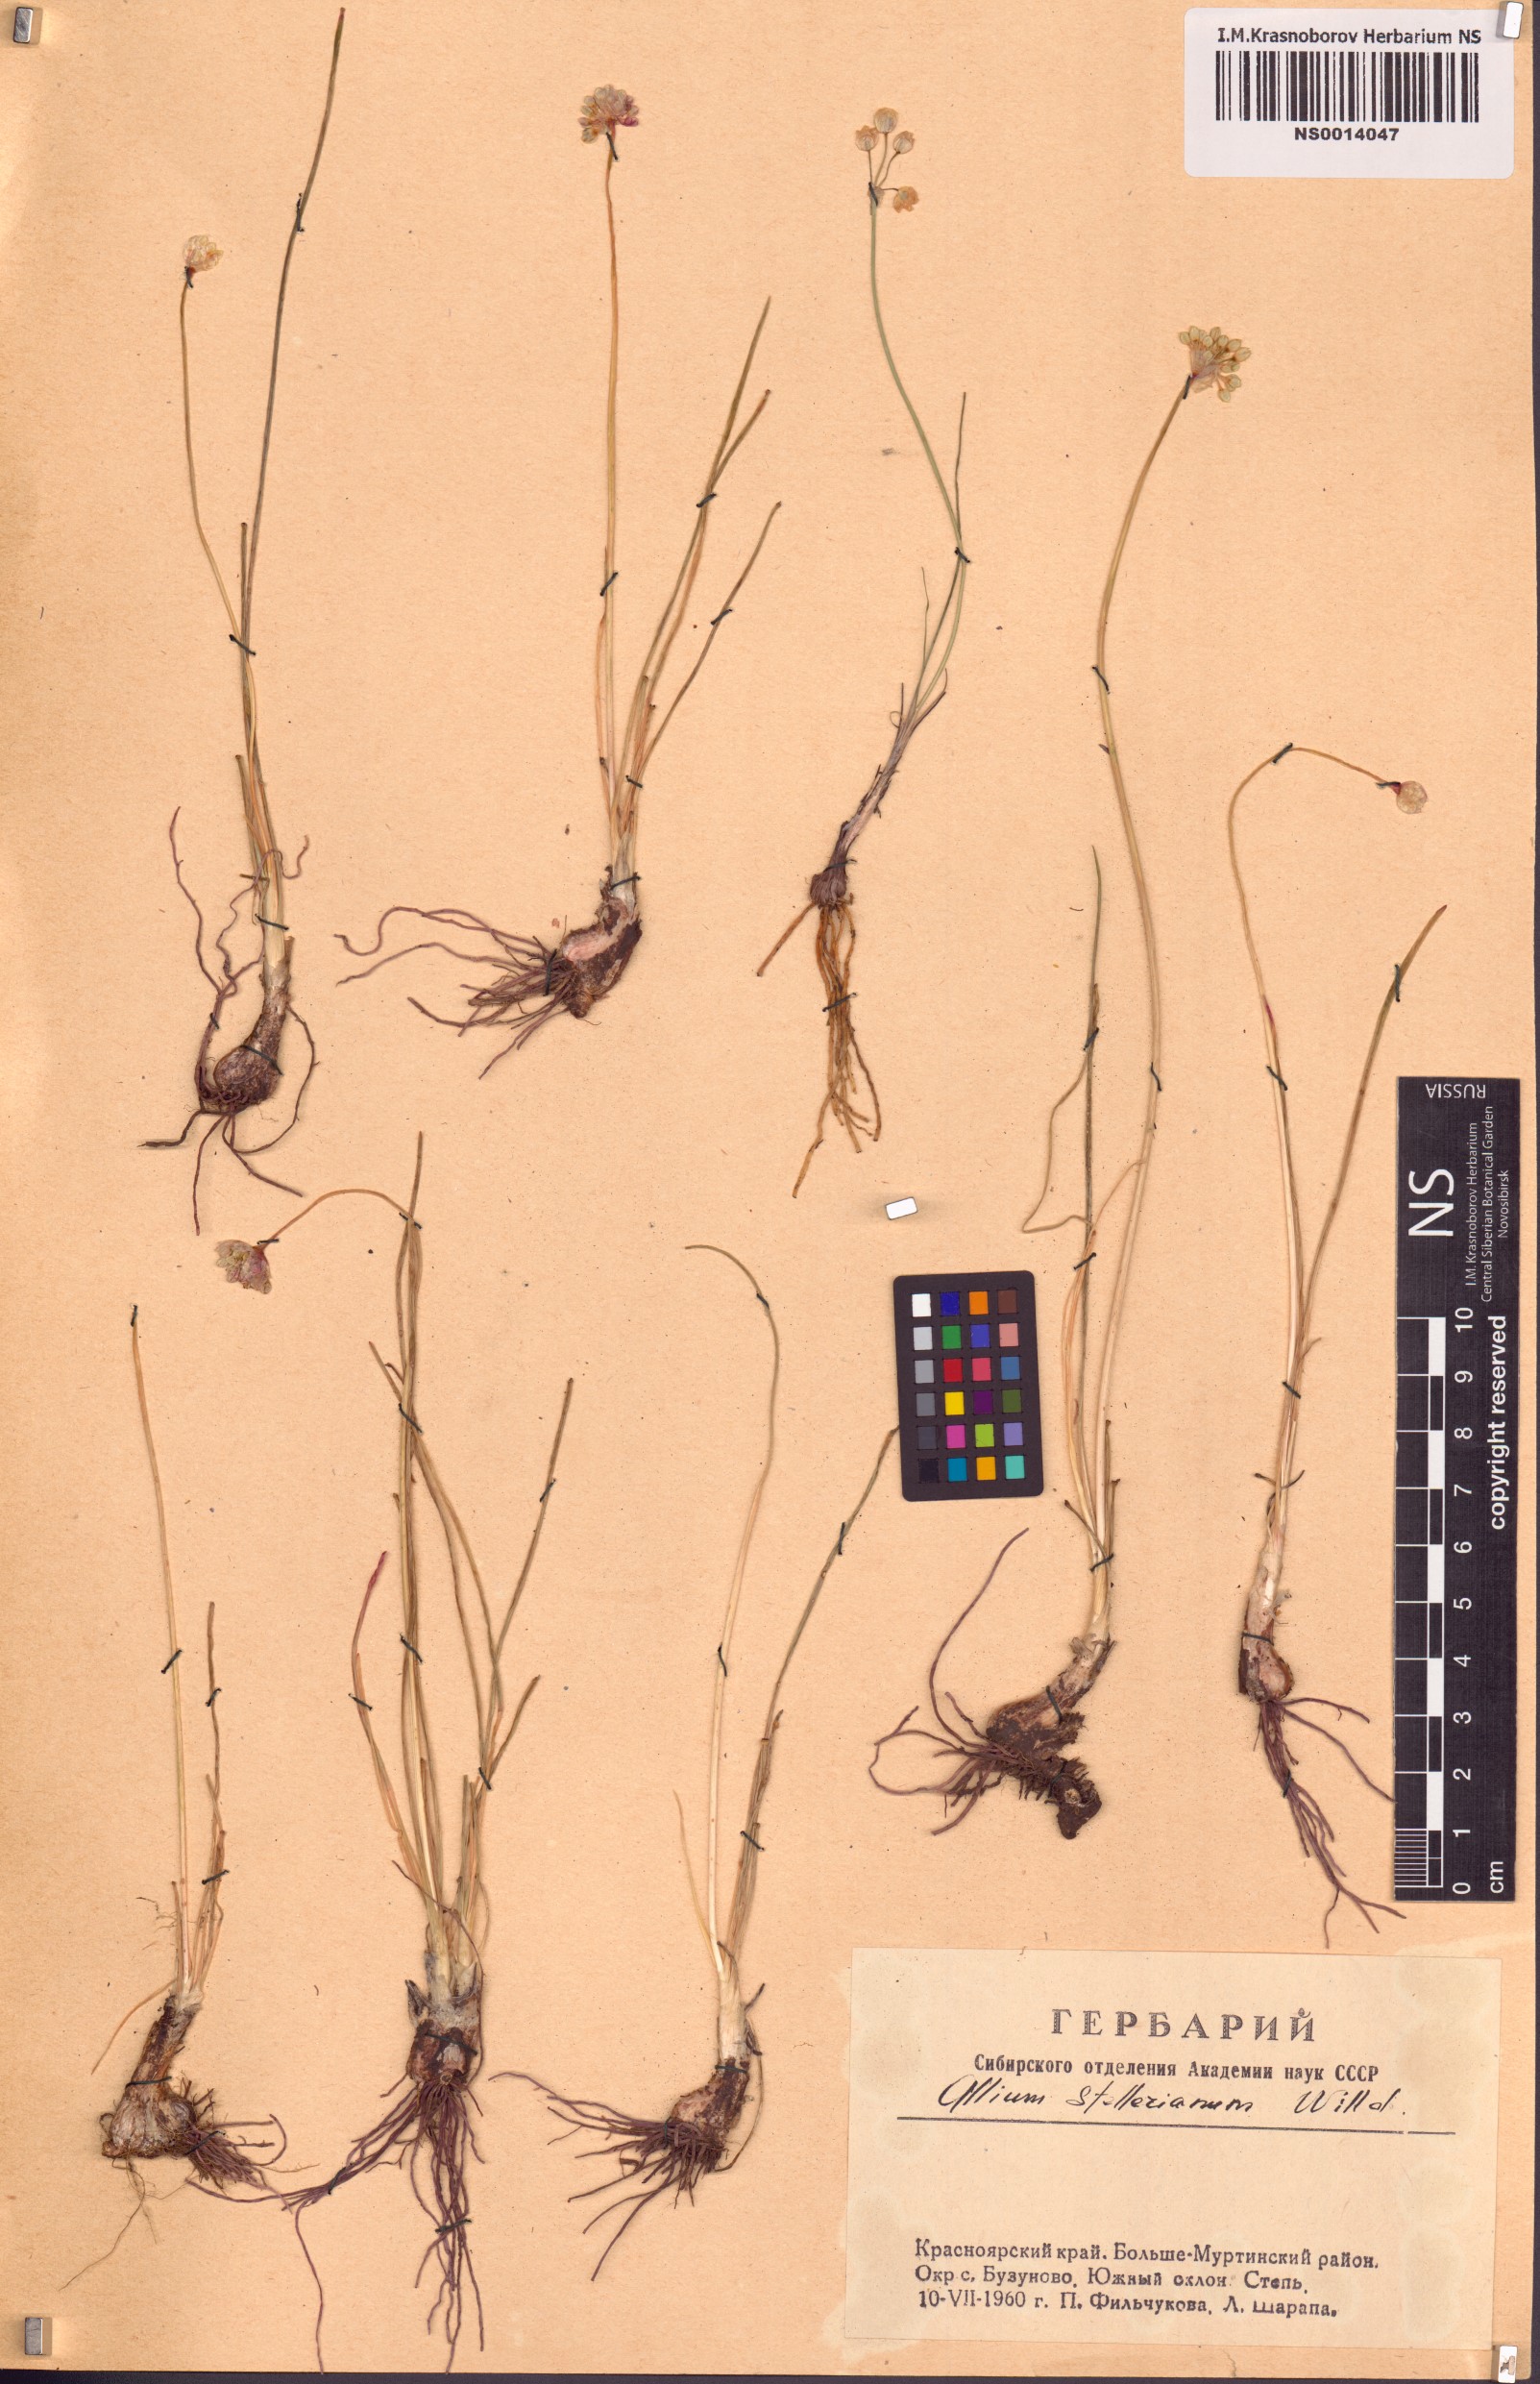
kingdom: Plantae
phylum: Tracheophyta
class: Liliopsida
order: Asparagales
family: Amaryllidaceae
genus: Allium
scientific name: Allium stellerianum
